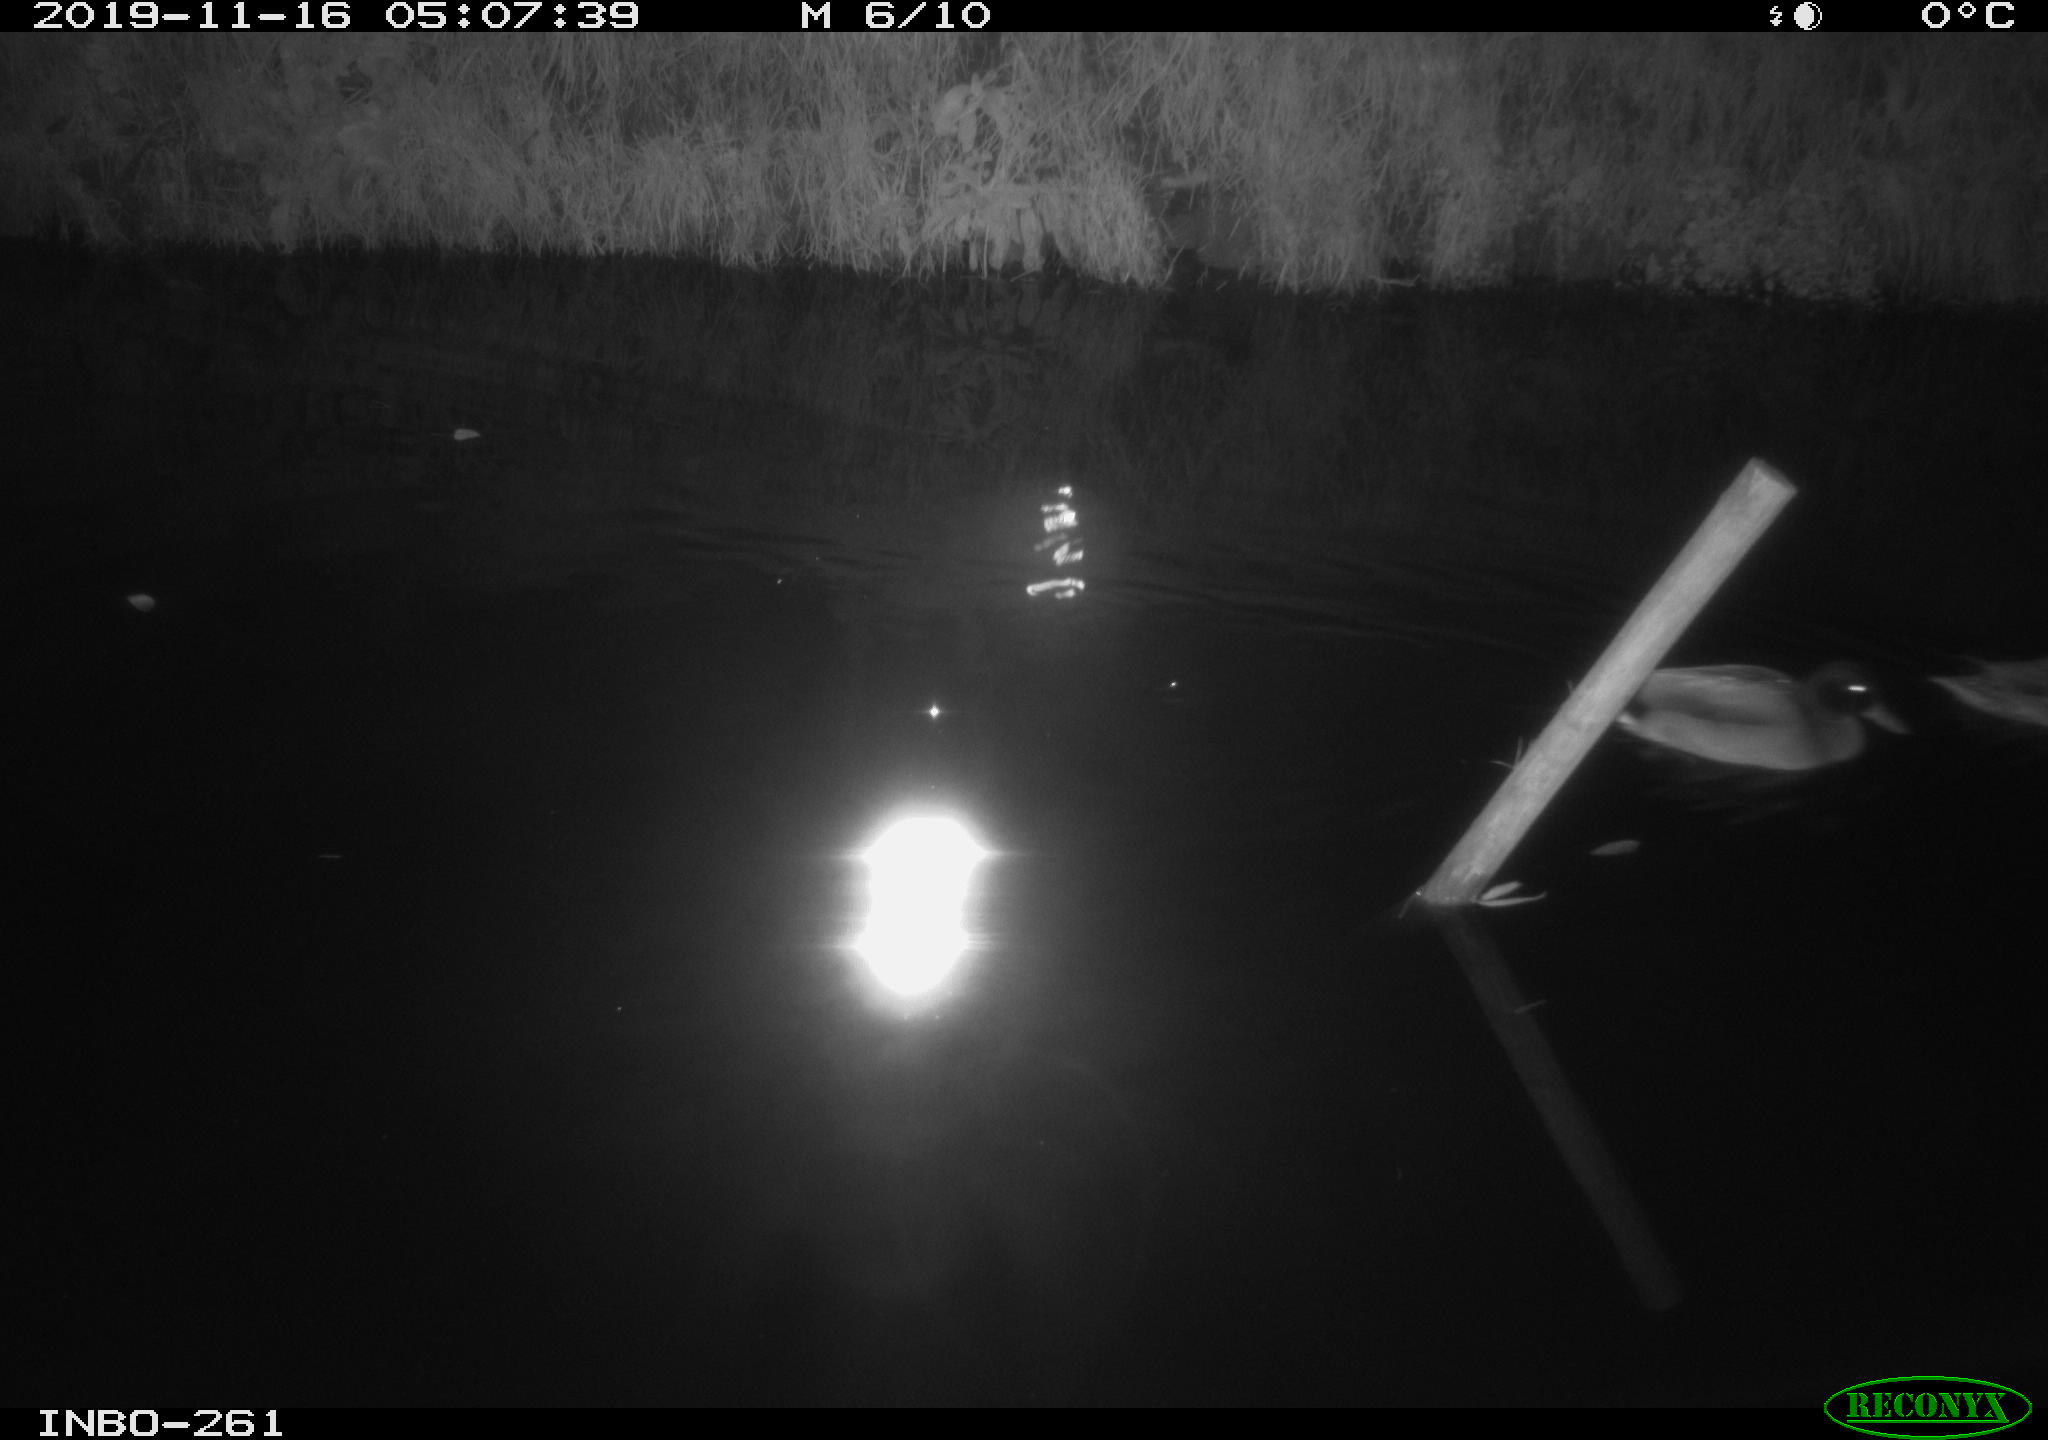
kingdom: Animalia
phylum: Chordata
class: Aves
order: Anseriformes
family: Anatidae
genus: Anas
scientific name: Anas platyrhynchos
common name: Mallard
